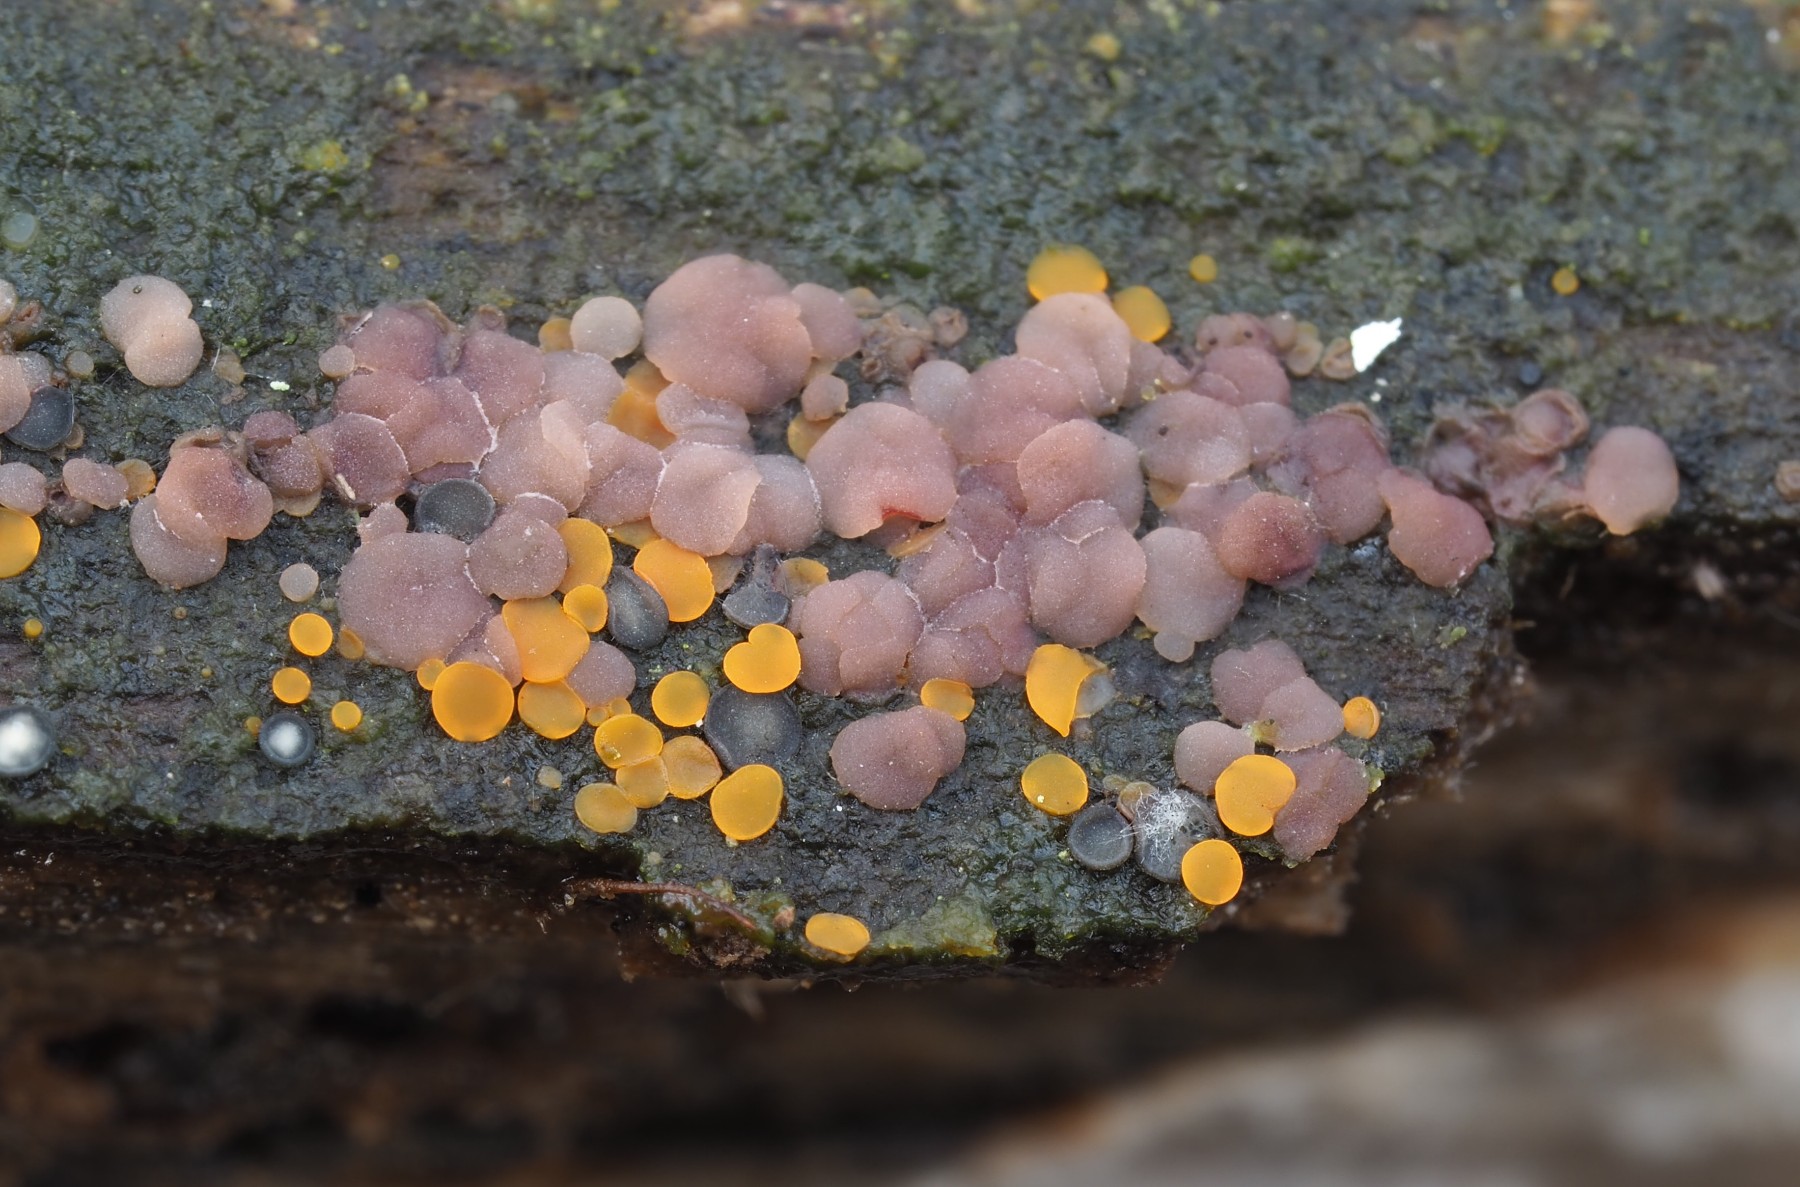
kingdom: Fungi
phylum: Ascomycota
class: Leotiomycetes
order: Helotiales
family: Gelatinodiscaceae
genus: Ombrophila
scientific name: Ombrophila
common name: bævreskive
